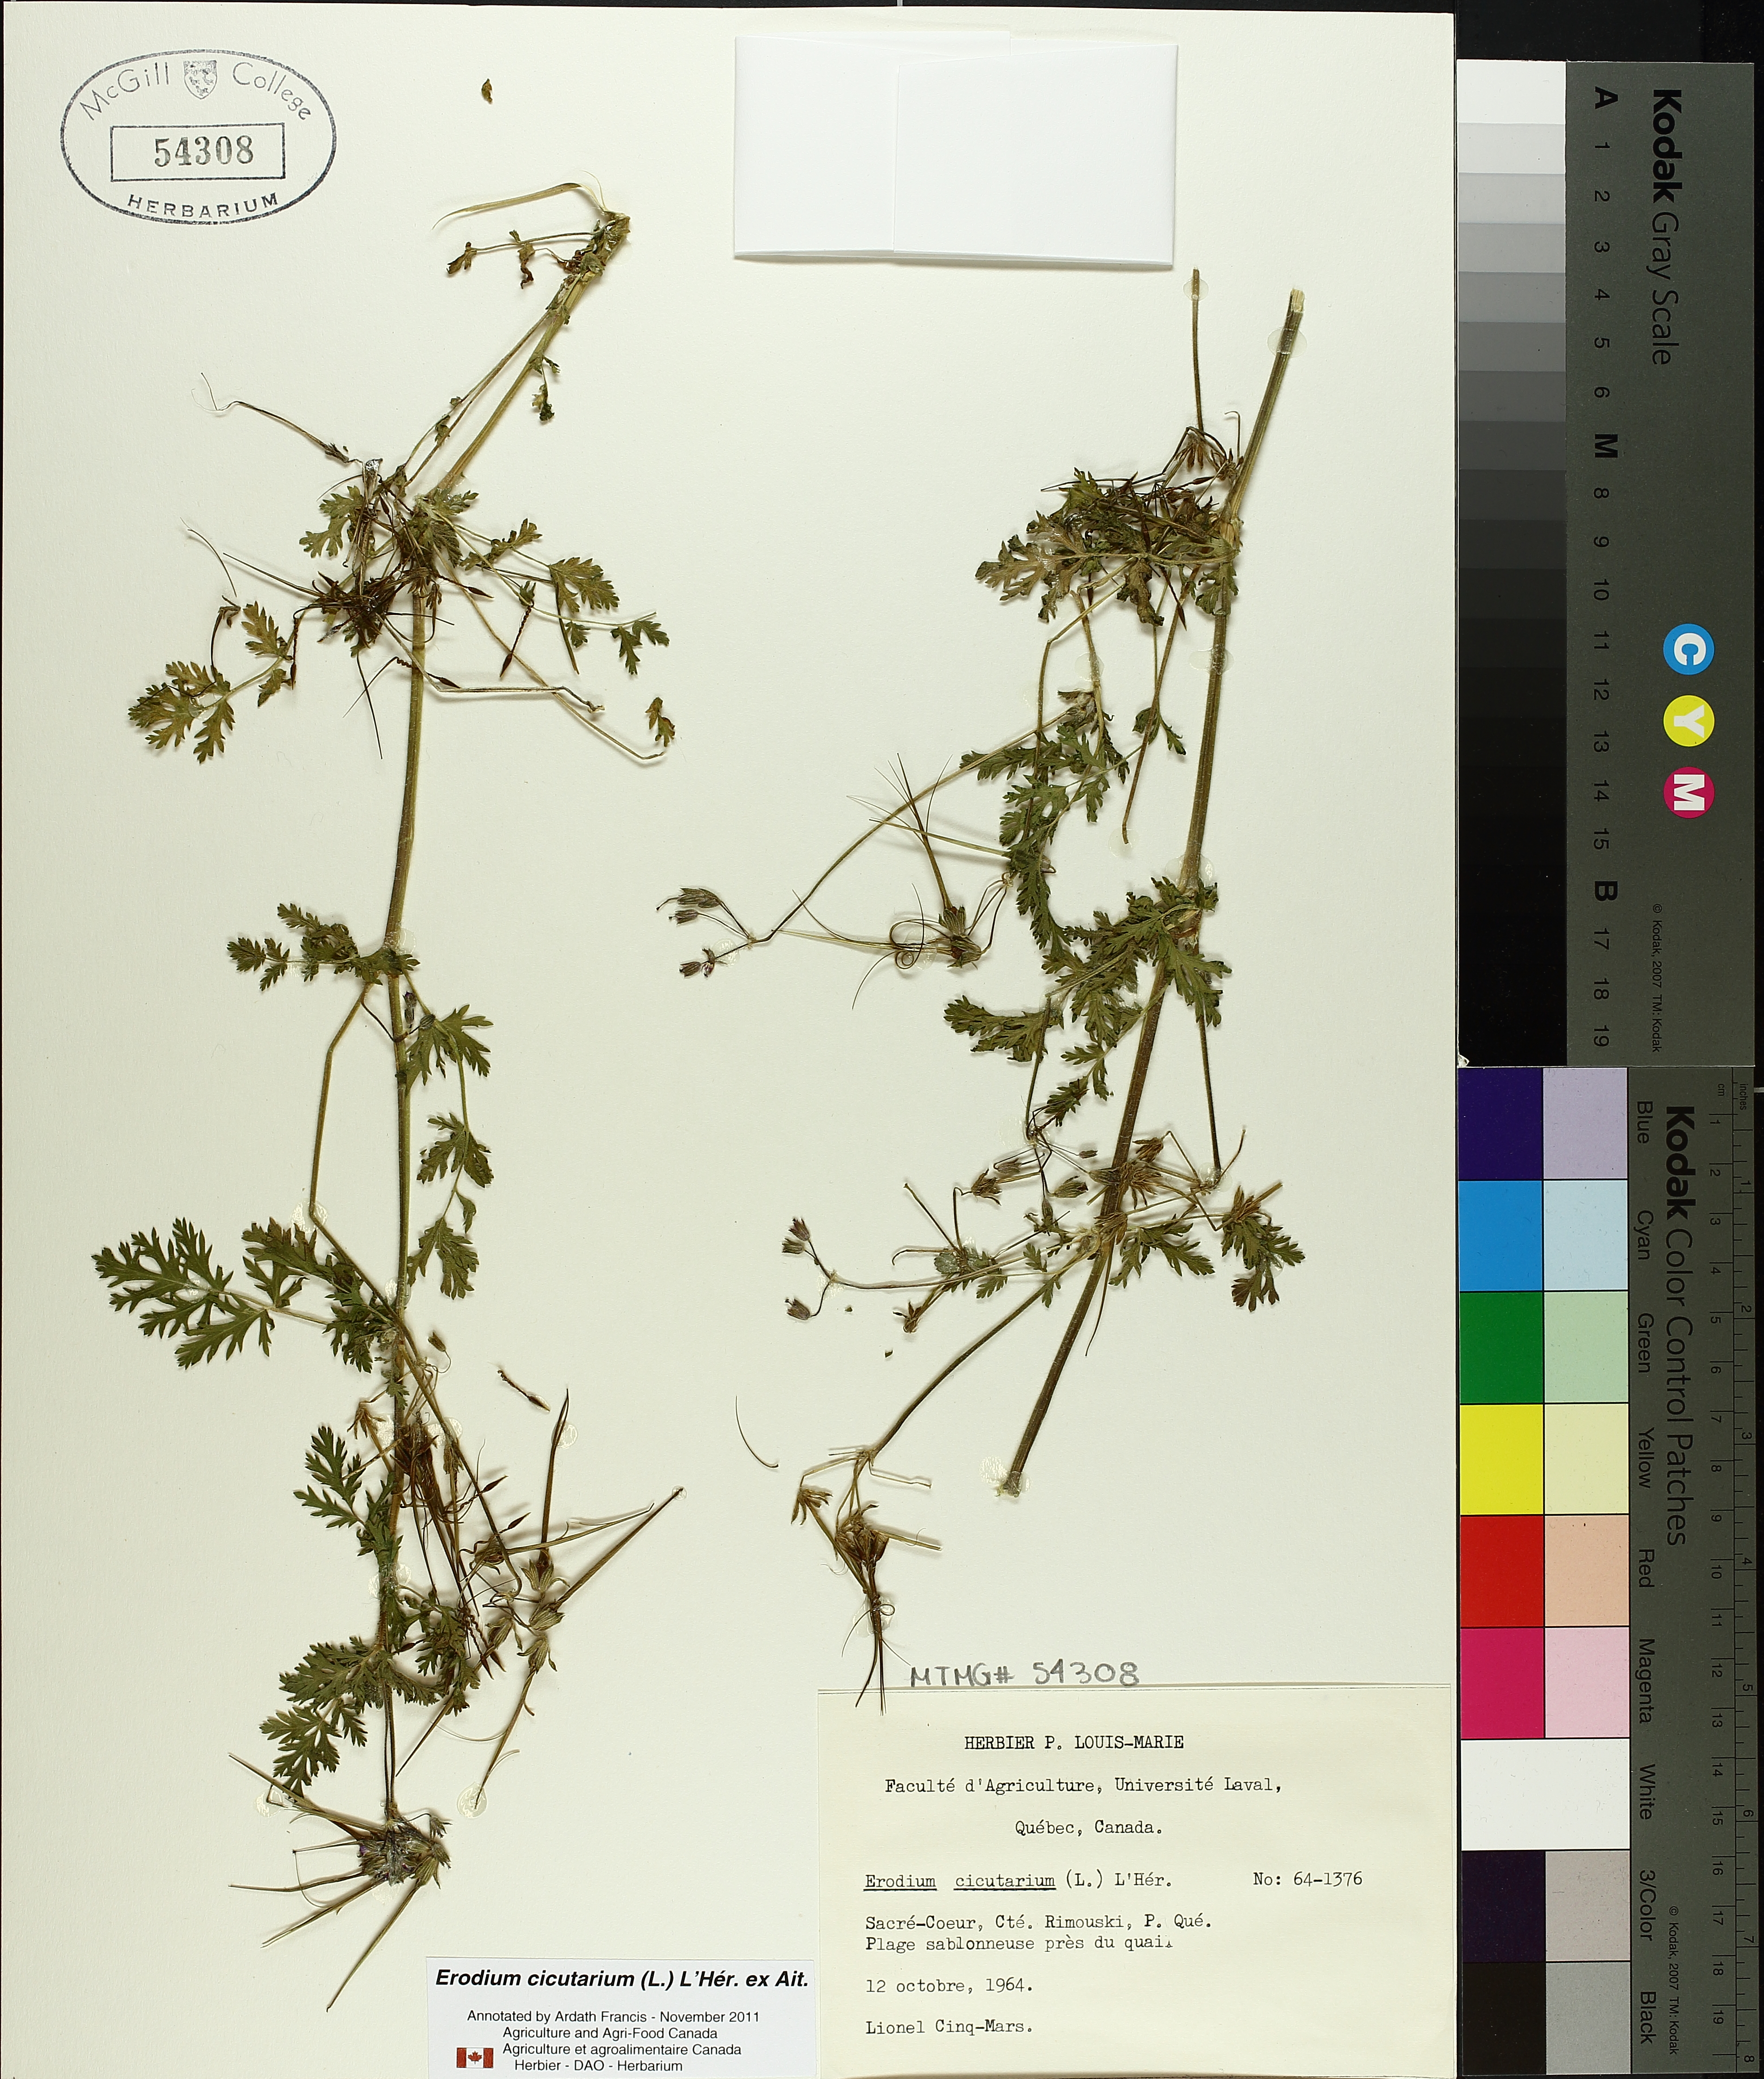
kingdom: Plantae
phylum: Tracheophyta
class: Magnoliopsida
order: Geraniales
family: Geraniaceae
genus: Erodium
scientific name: Erodium cicutarium
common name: Common stork's-bill
